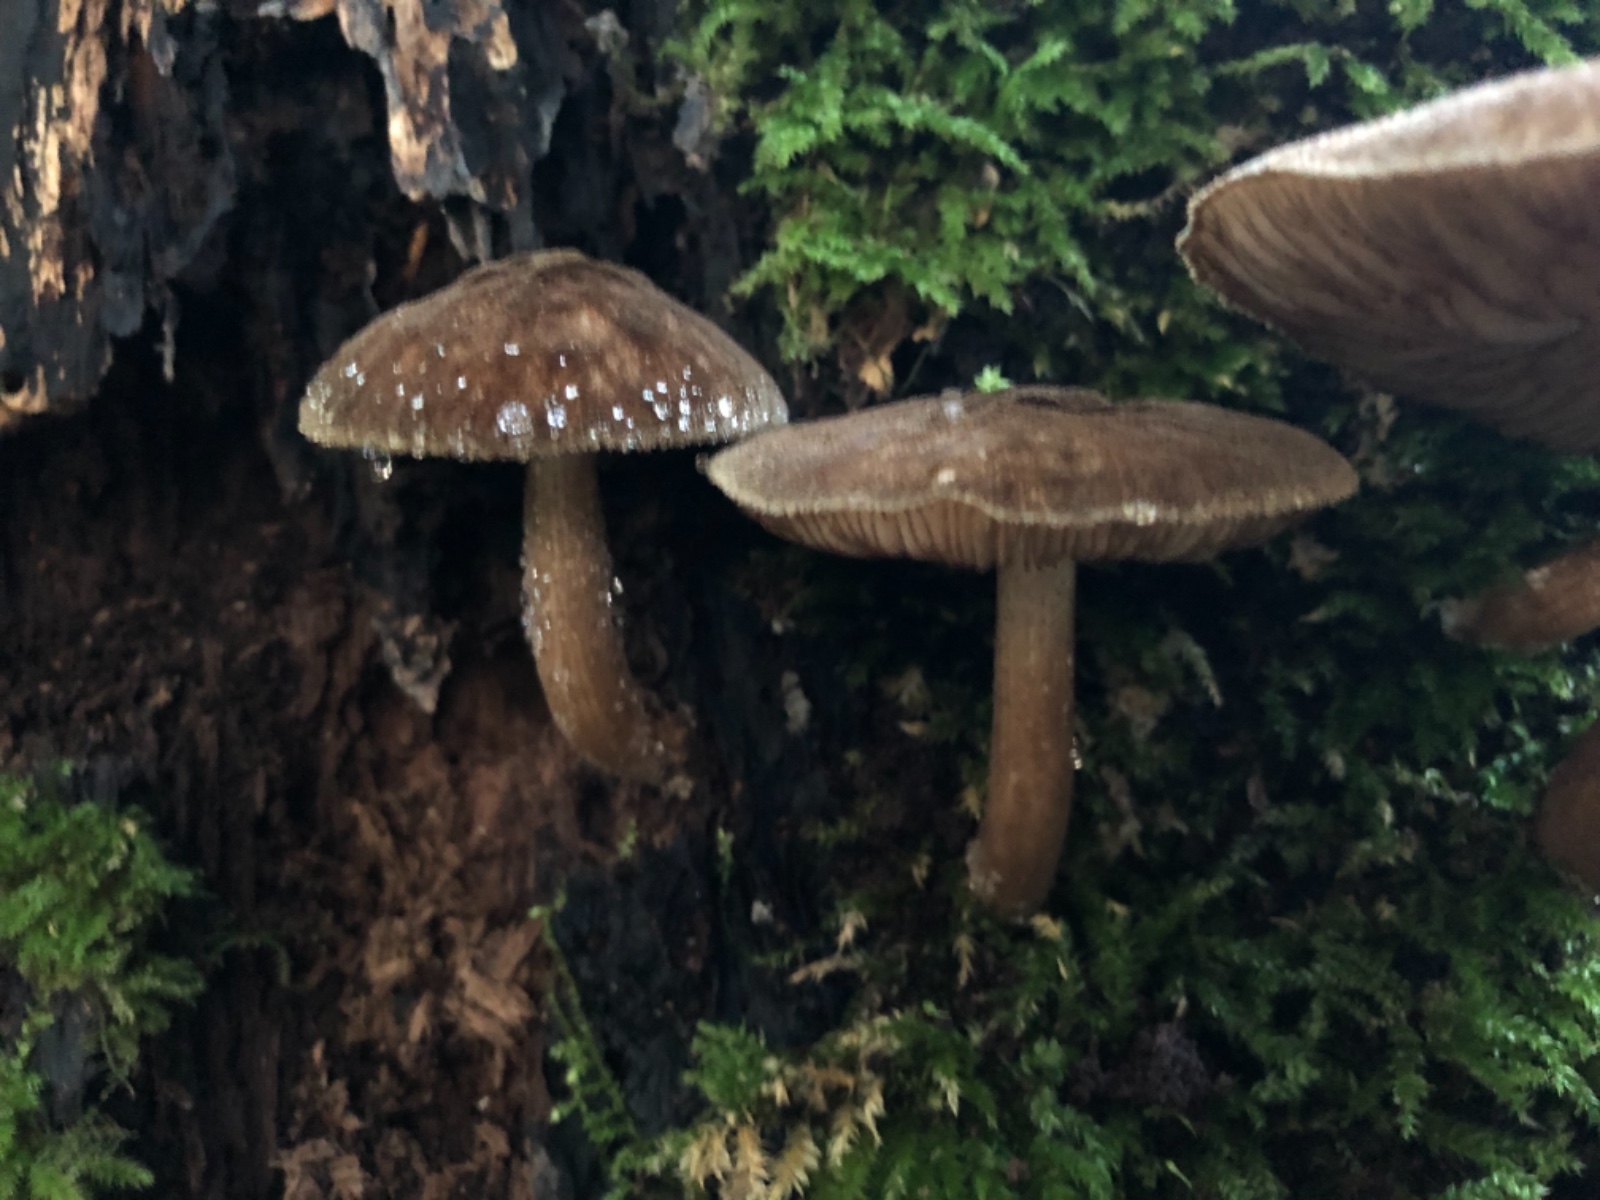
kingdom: Fungi
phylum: Basidiomycota
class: Agaricomycetes
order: Agaricales
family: Pluteaceae
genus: Pluteus
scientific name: Pluteus umbrosus
